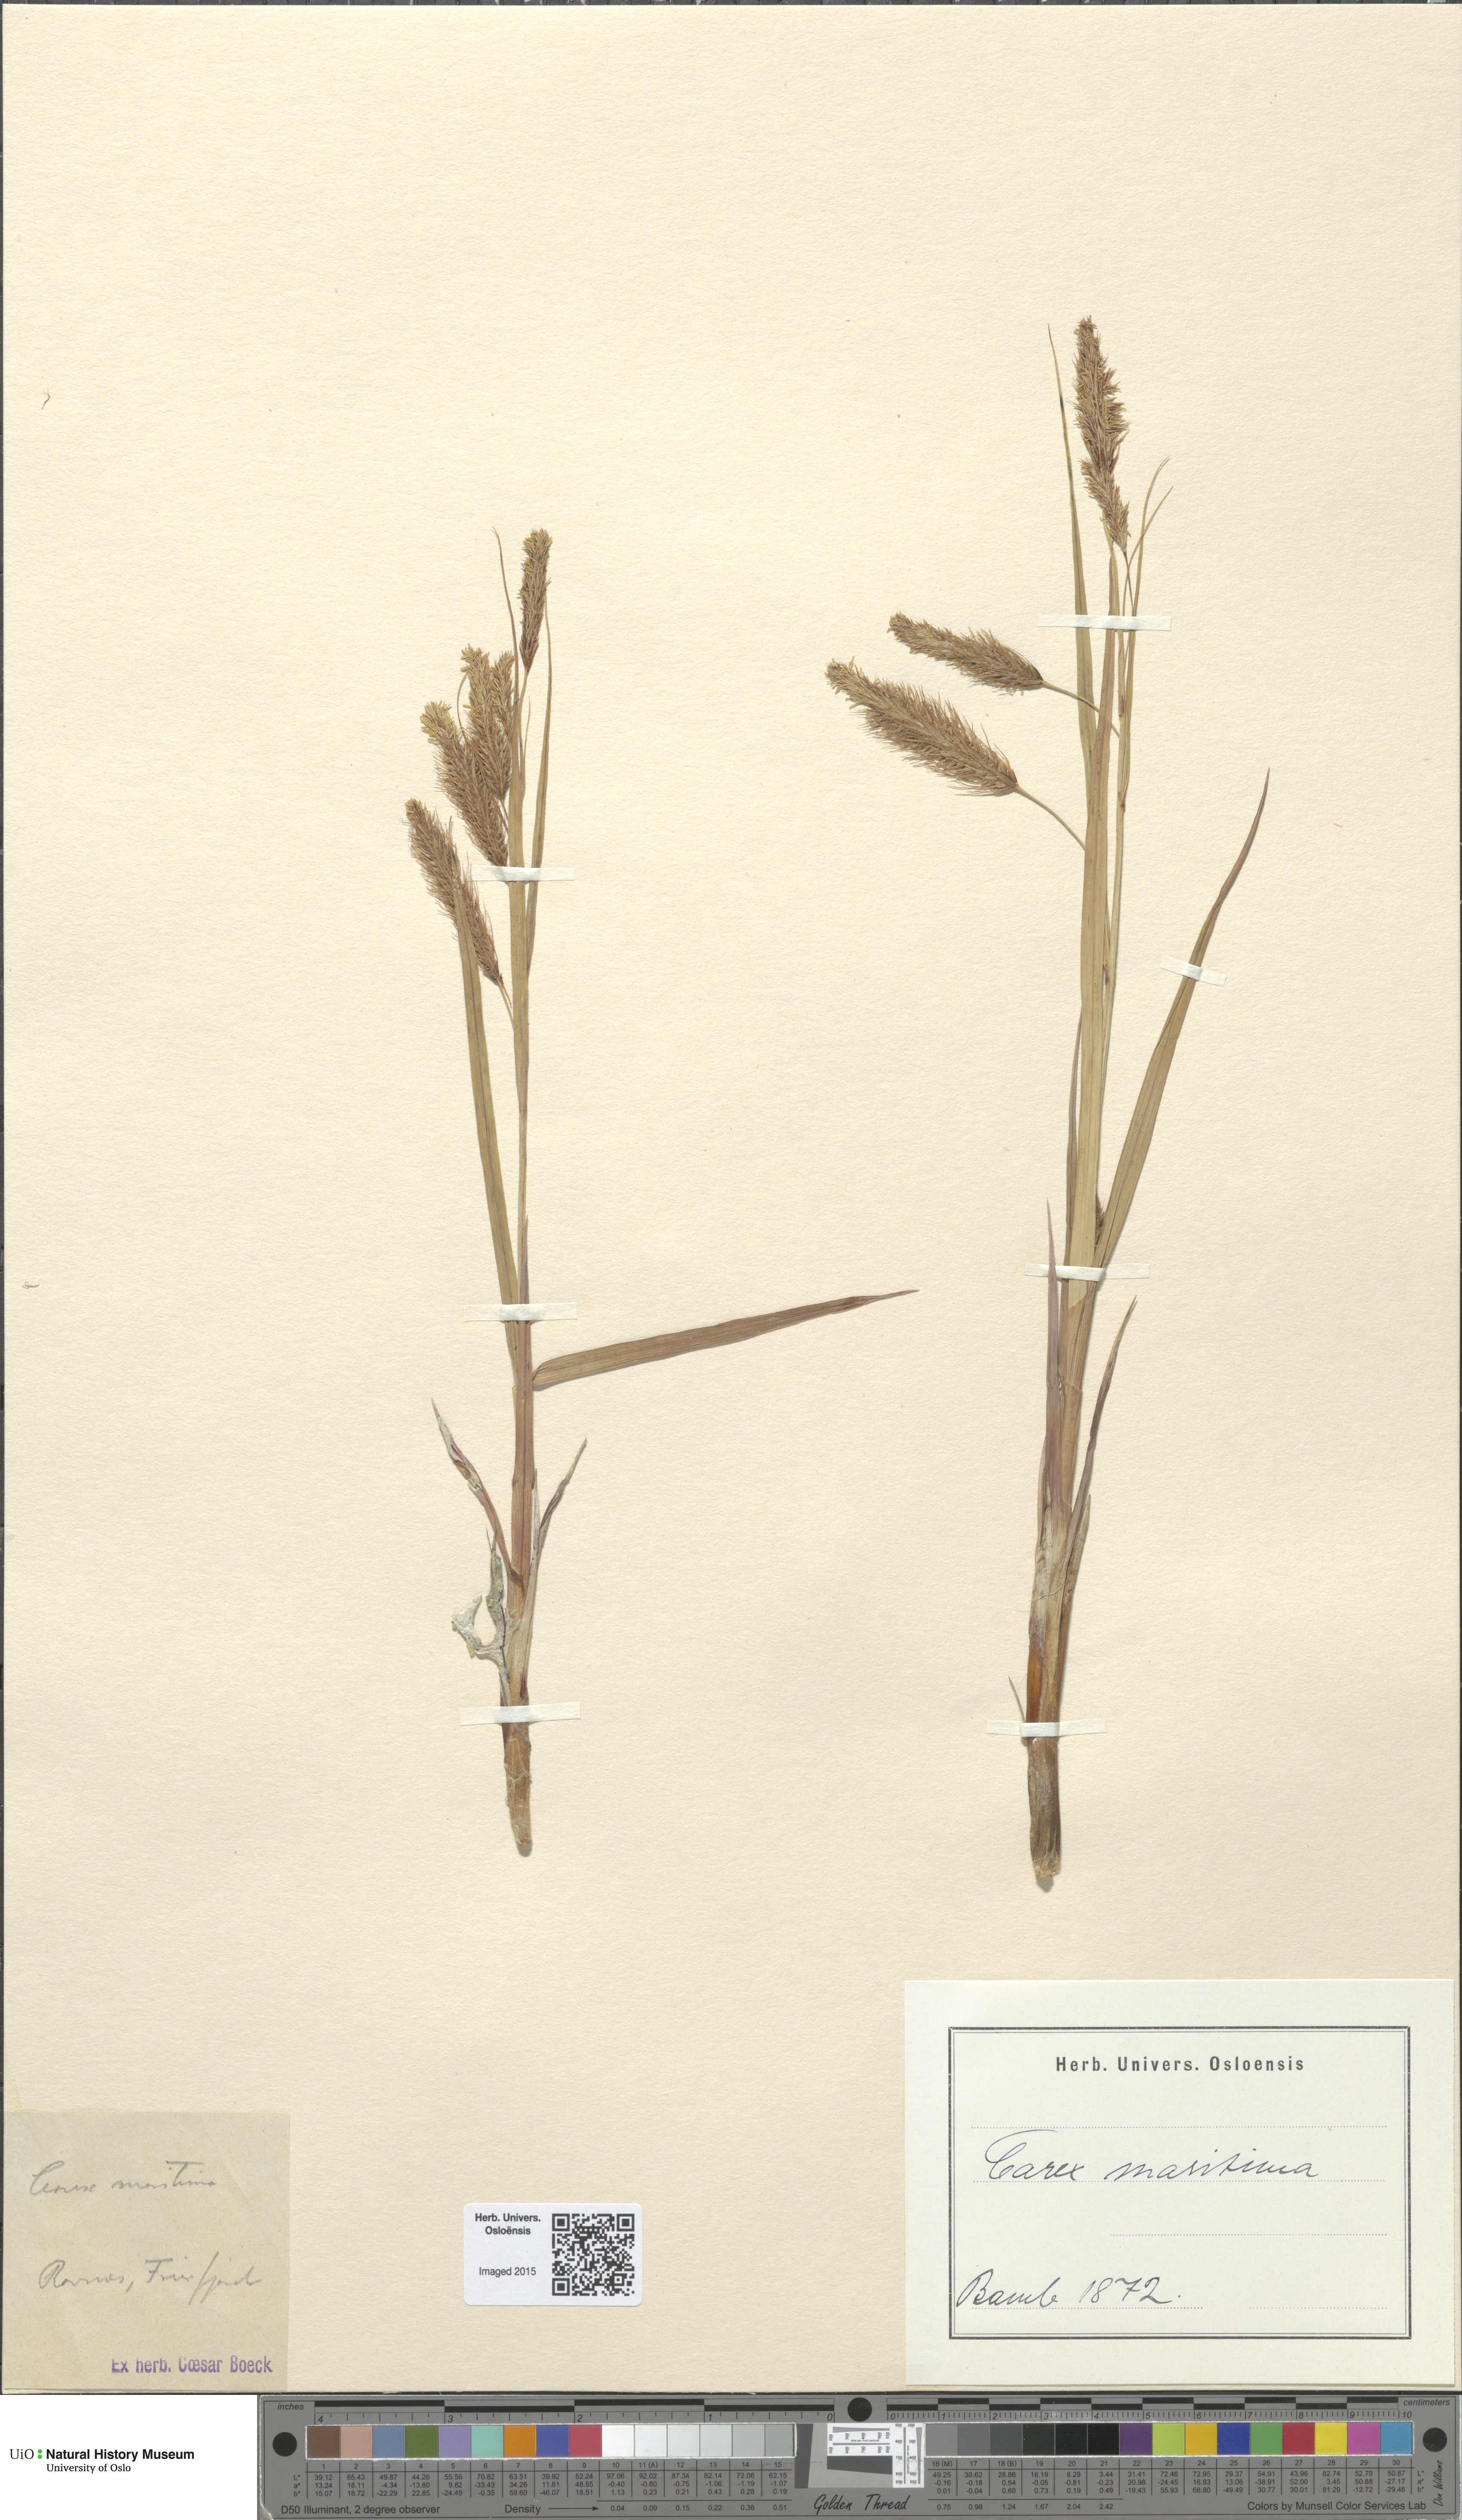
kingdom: Plantae
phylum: Tracheophyta
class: Liliopsida
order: Poales
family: Cyperaceae
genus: Carex
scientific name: Carex paleacea
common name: Chaffy sedge
